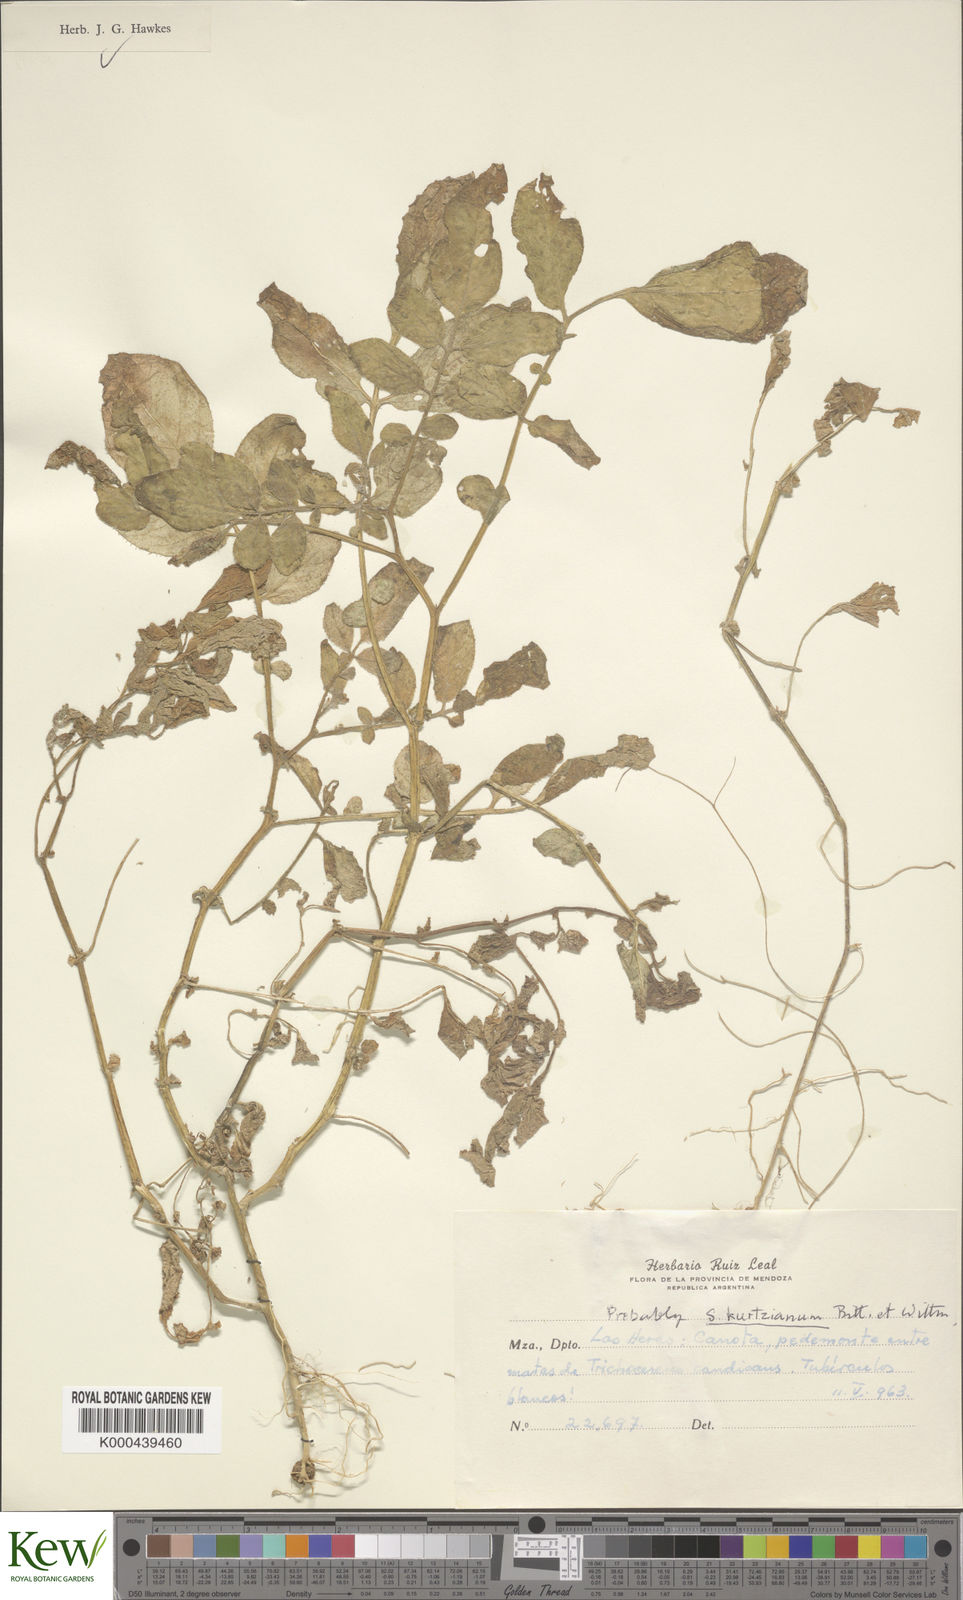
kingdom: Plantae
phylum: Tracheophyta
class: Magnoliopsida
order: Solanales
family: Solanaceae
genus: Solanum
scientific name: Solanum kurtzianum
